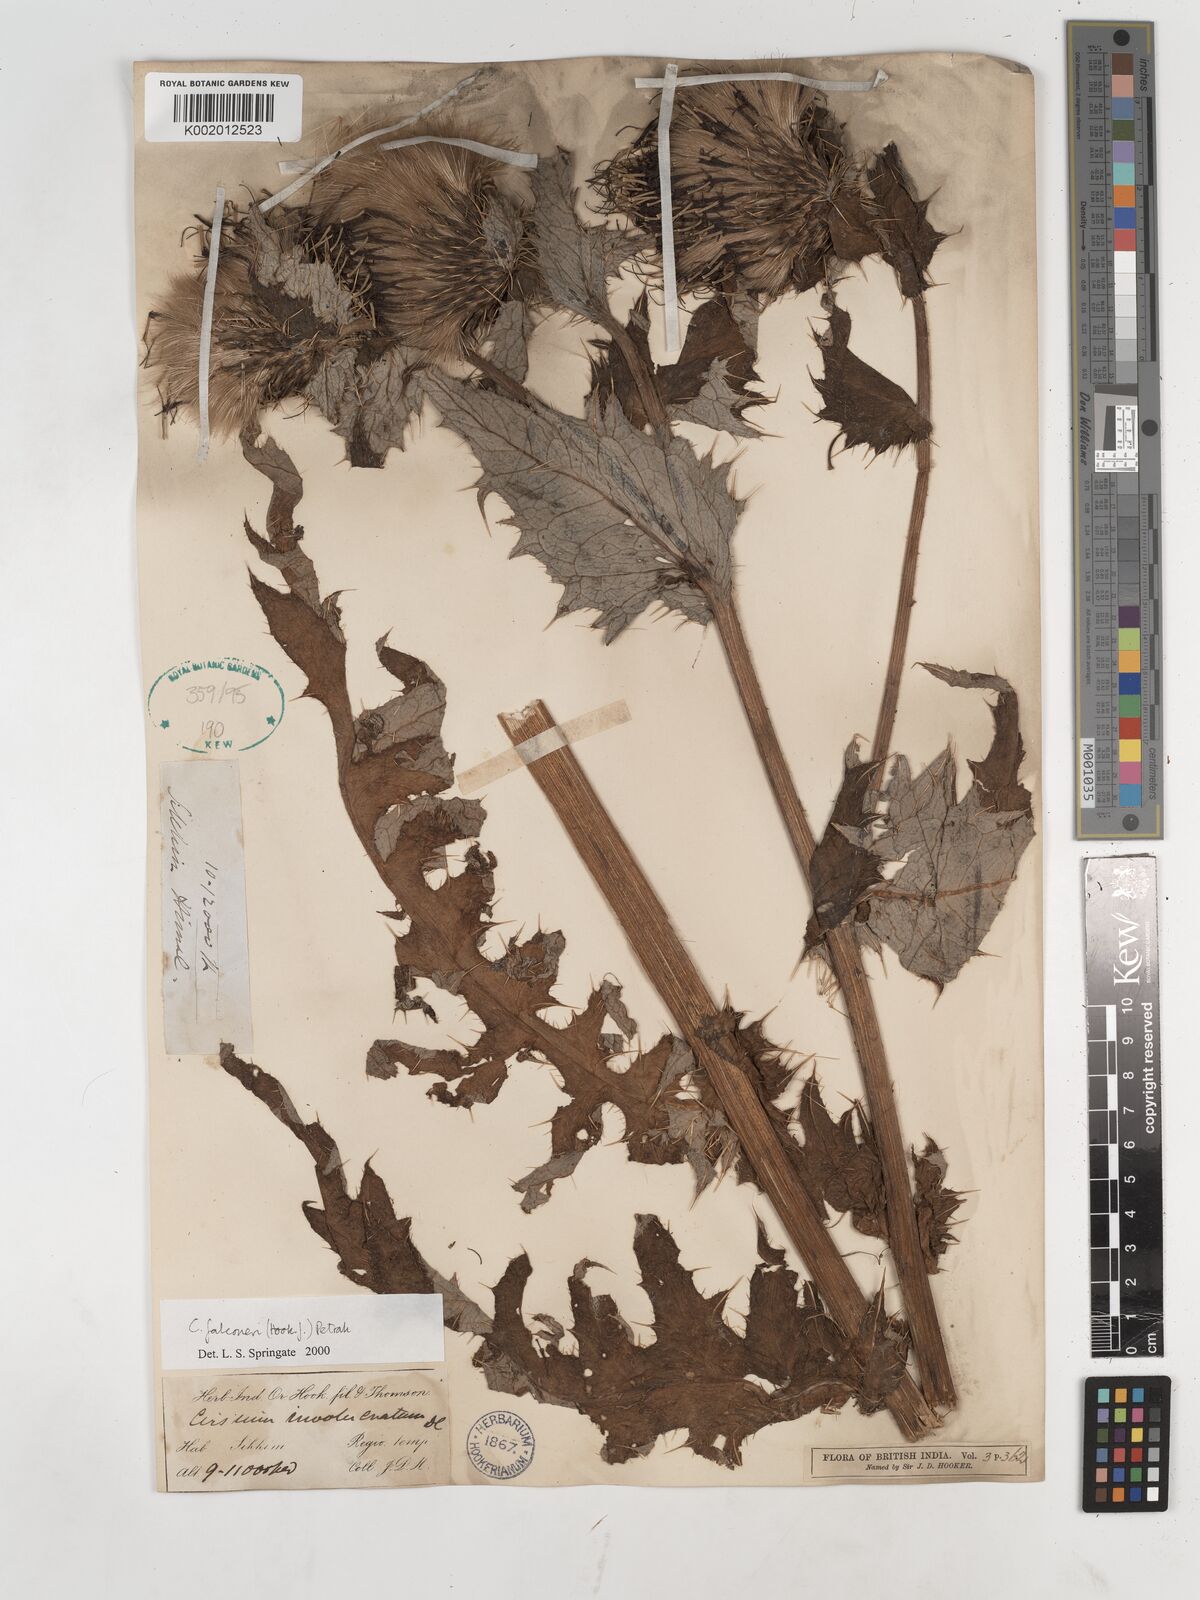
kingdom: Plantae
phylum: Tracheophyta
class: Magnoliopsida
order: Asterales
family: Asteraceae
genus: Cirsium
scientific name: Cirsium falconeri
